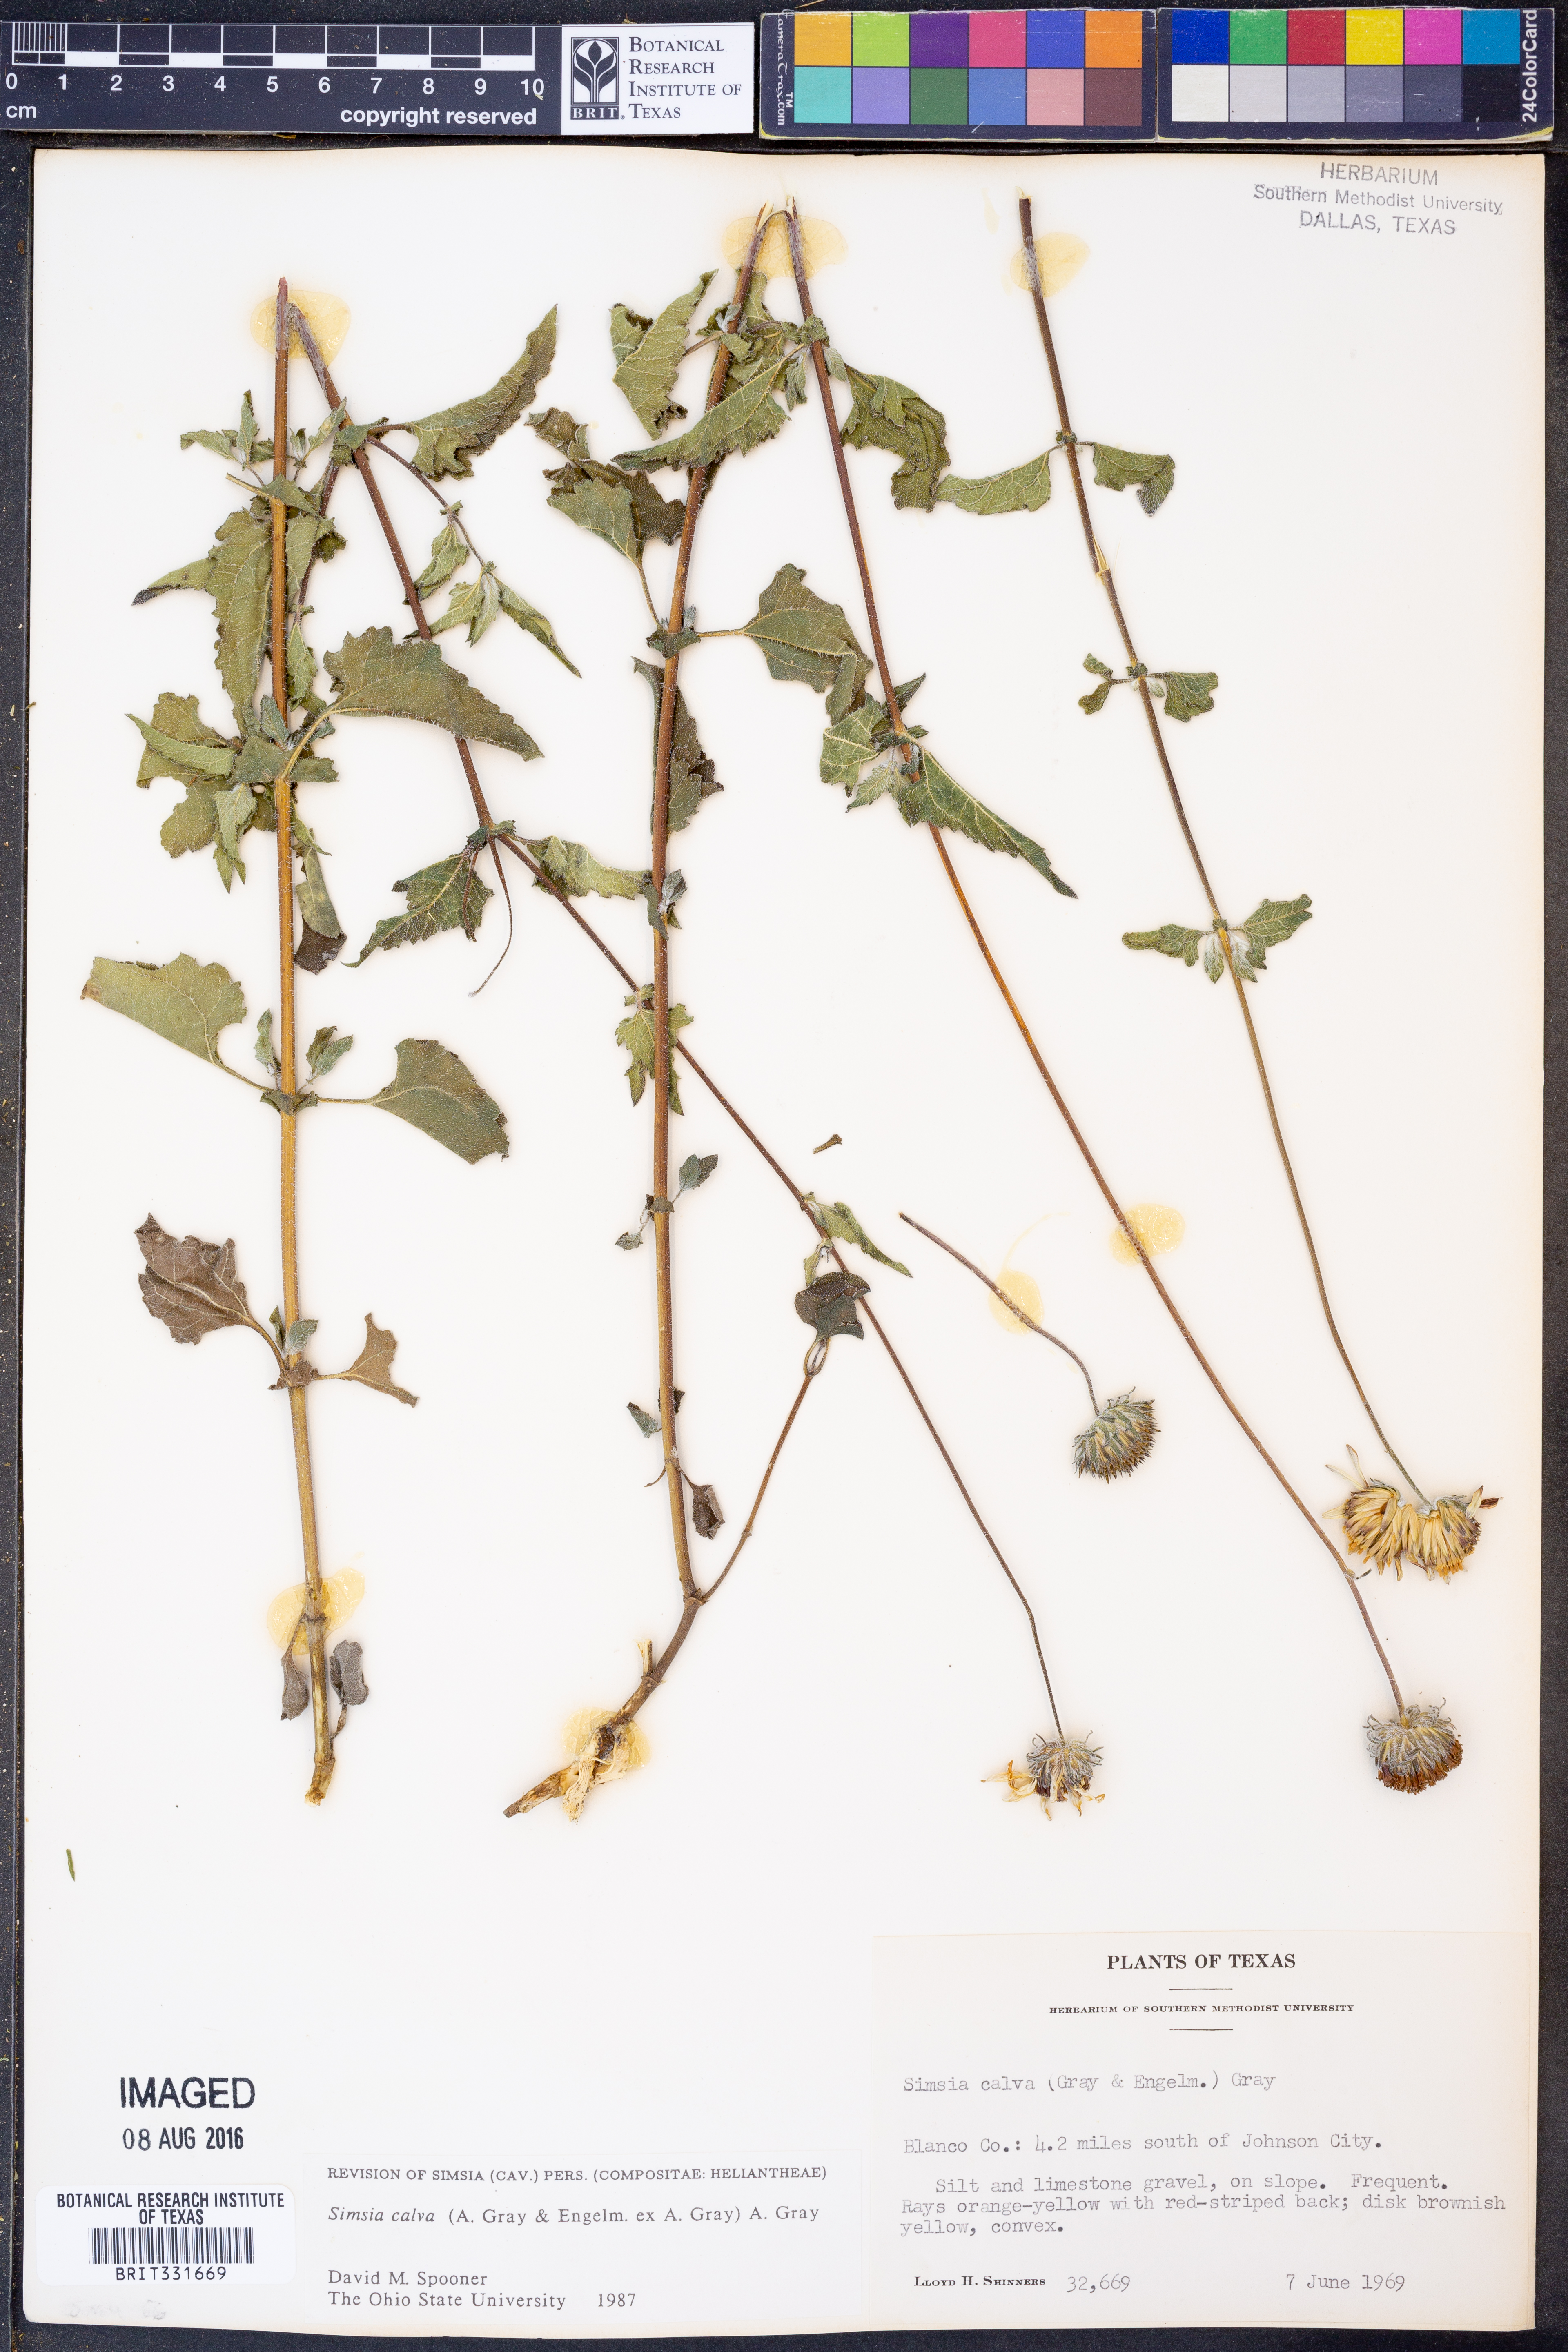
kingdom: Plantae
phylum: Tracheophyta
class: Magnoliopsida
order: Asterales
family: Asteraceae
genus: Simsia
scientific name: Simsia calva
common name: Awnless bush-sunflower
